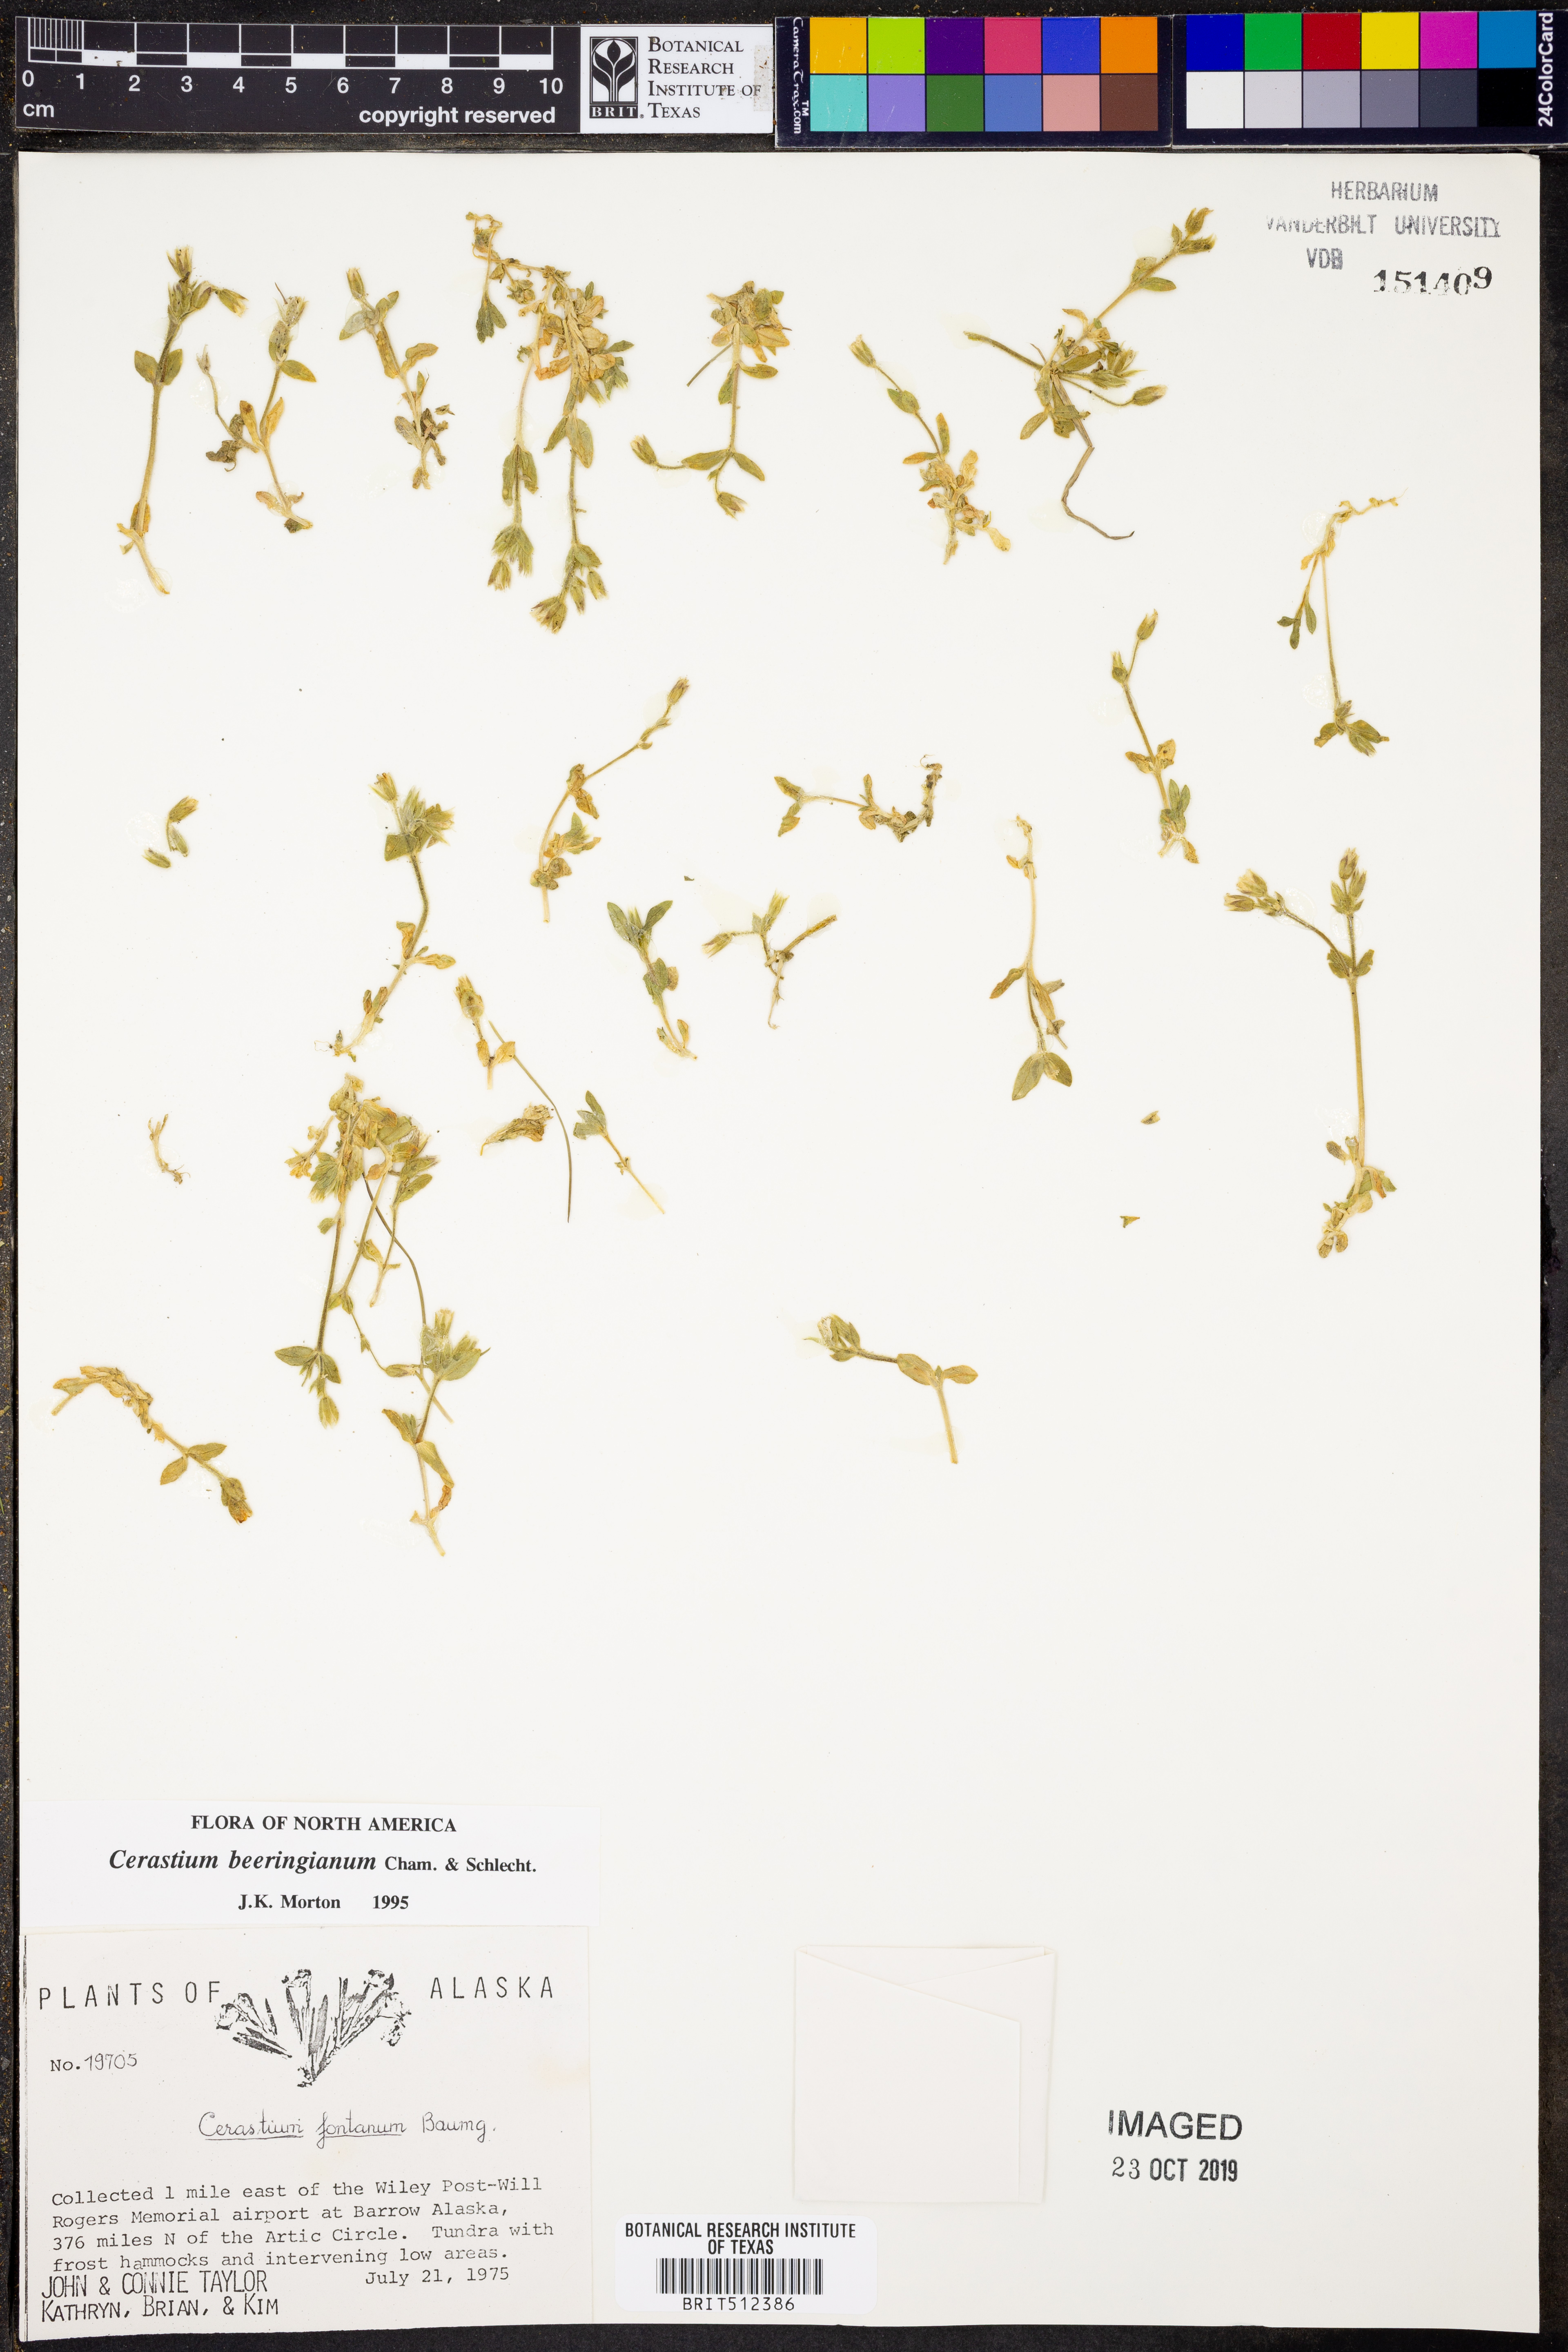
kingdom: Plantae
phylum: Tracheophyta
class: Magnoliopsida
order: Caryophyllales
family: Caryophyllaceae
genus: Cerastium
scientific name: Cerastium beeringianum
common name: Bering mouse-ear chickweed
